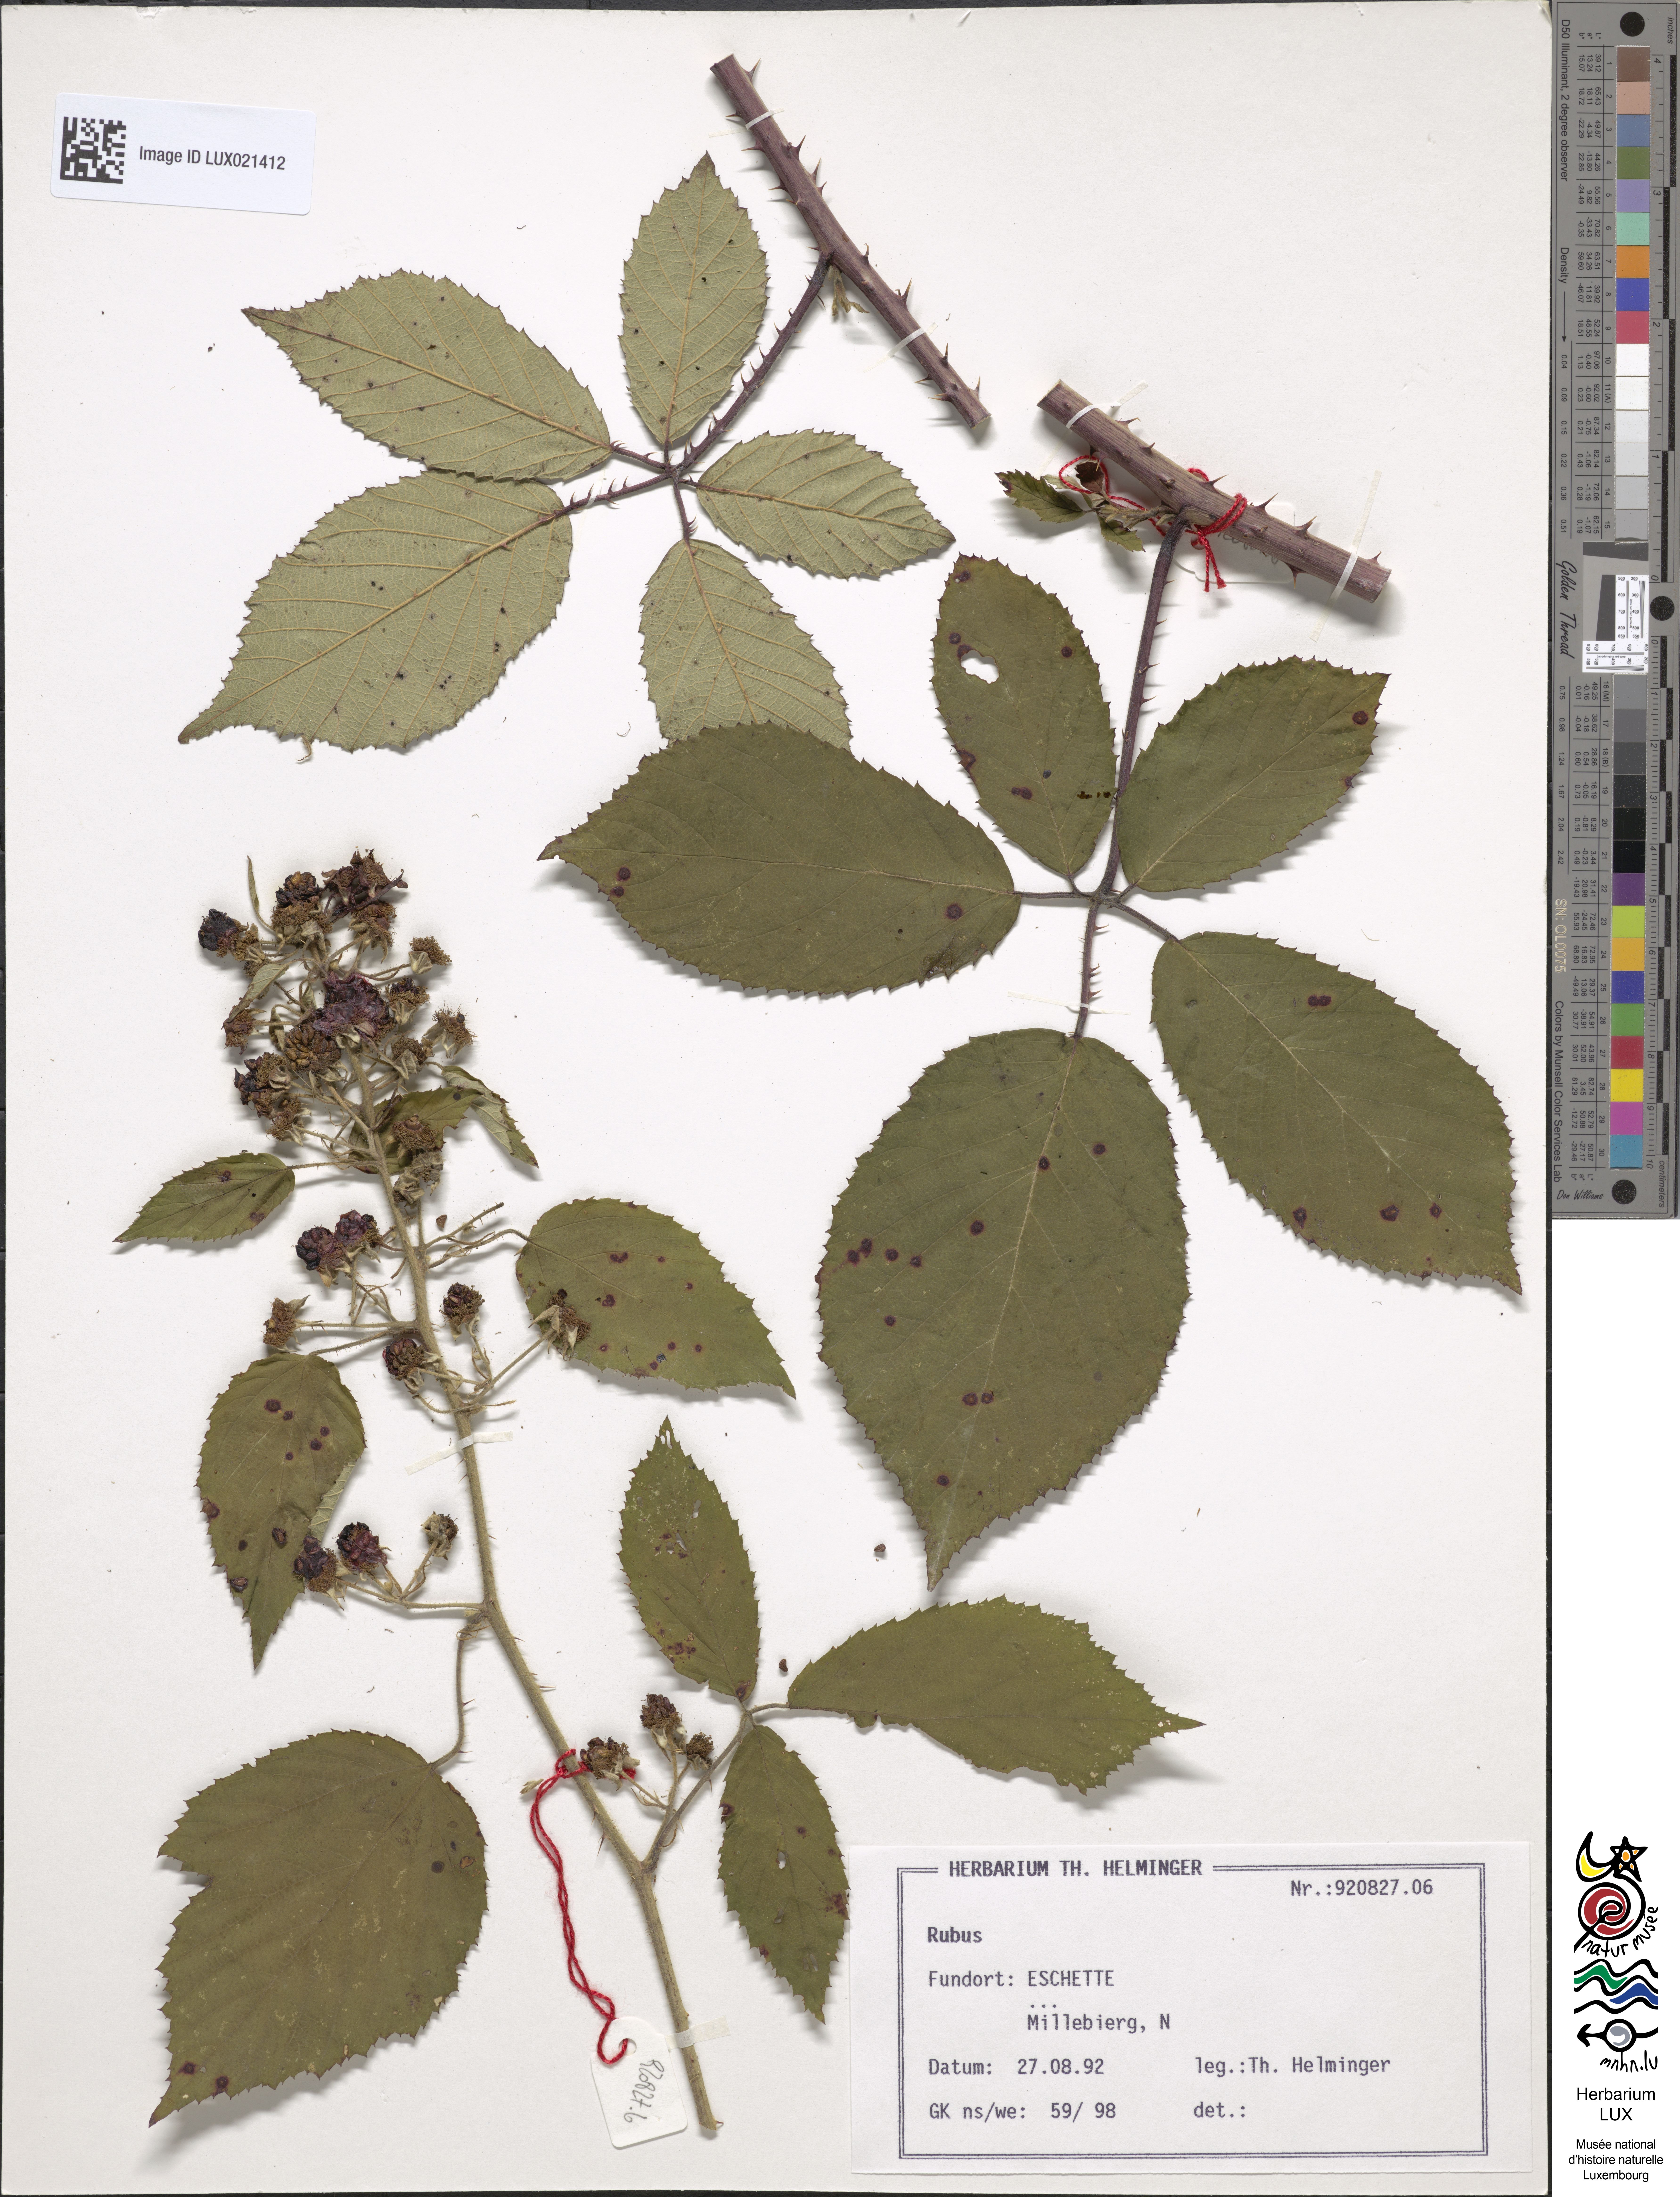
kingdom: Plantae
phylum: Tracheophyta
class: Magnoliopsida
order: Rosales
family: Rosaceae
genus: Rubus
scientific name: Rubus
